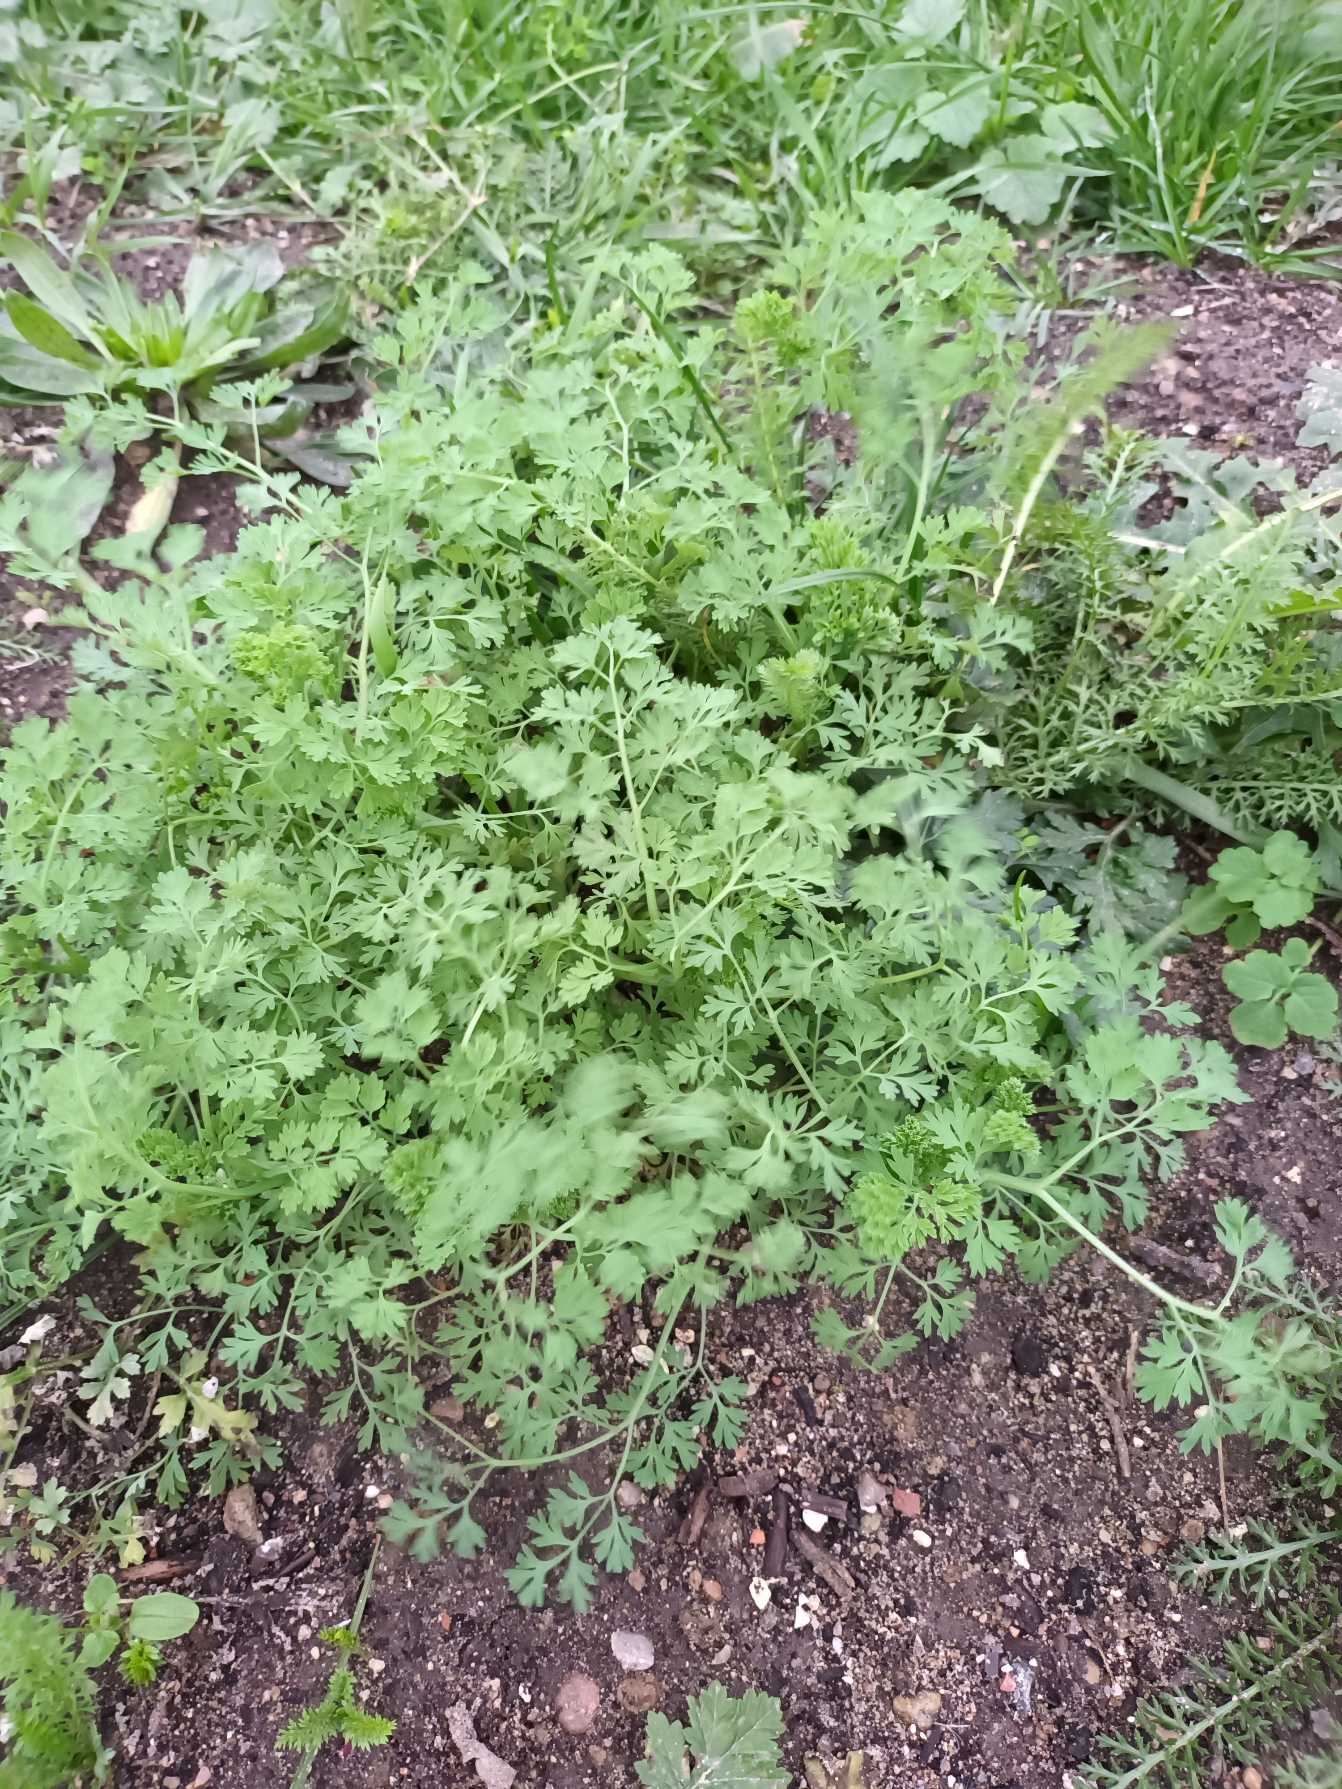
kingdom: Plantae
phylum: Tracheophyta
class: Magnoliopsida
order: Ranunculales
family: Papaveraceae
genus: Fumaria
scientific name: Fumaria officinalis
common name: Læge-jordrøg
